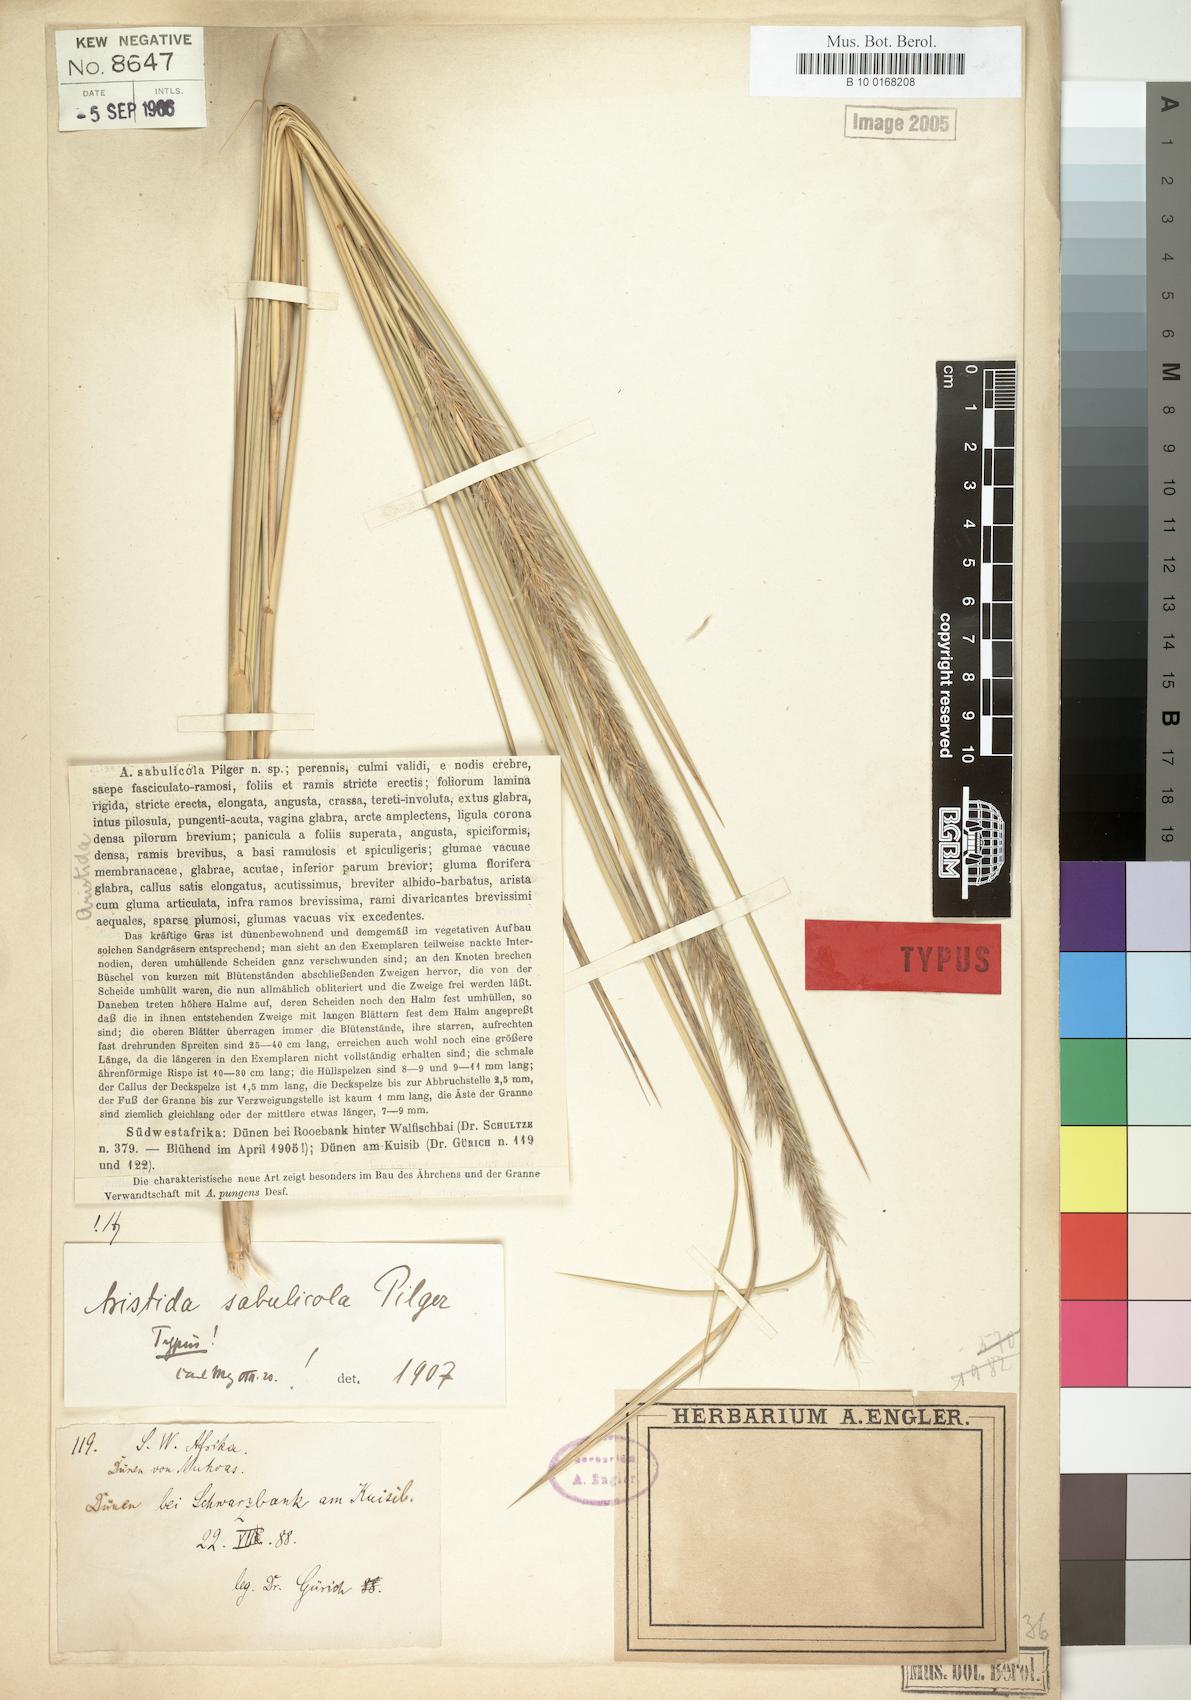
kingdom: Plantae
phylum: Tracheophyta
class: Liliopsida
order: Poales
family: Poaceae
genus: Stipagrostis
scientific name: Stipagrostis sabulicola
